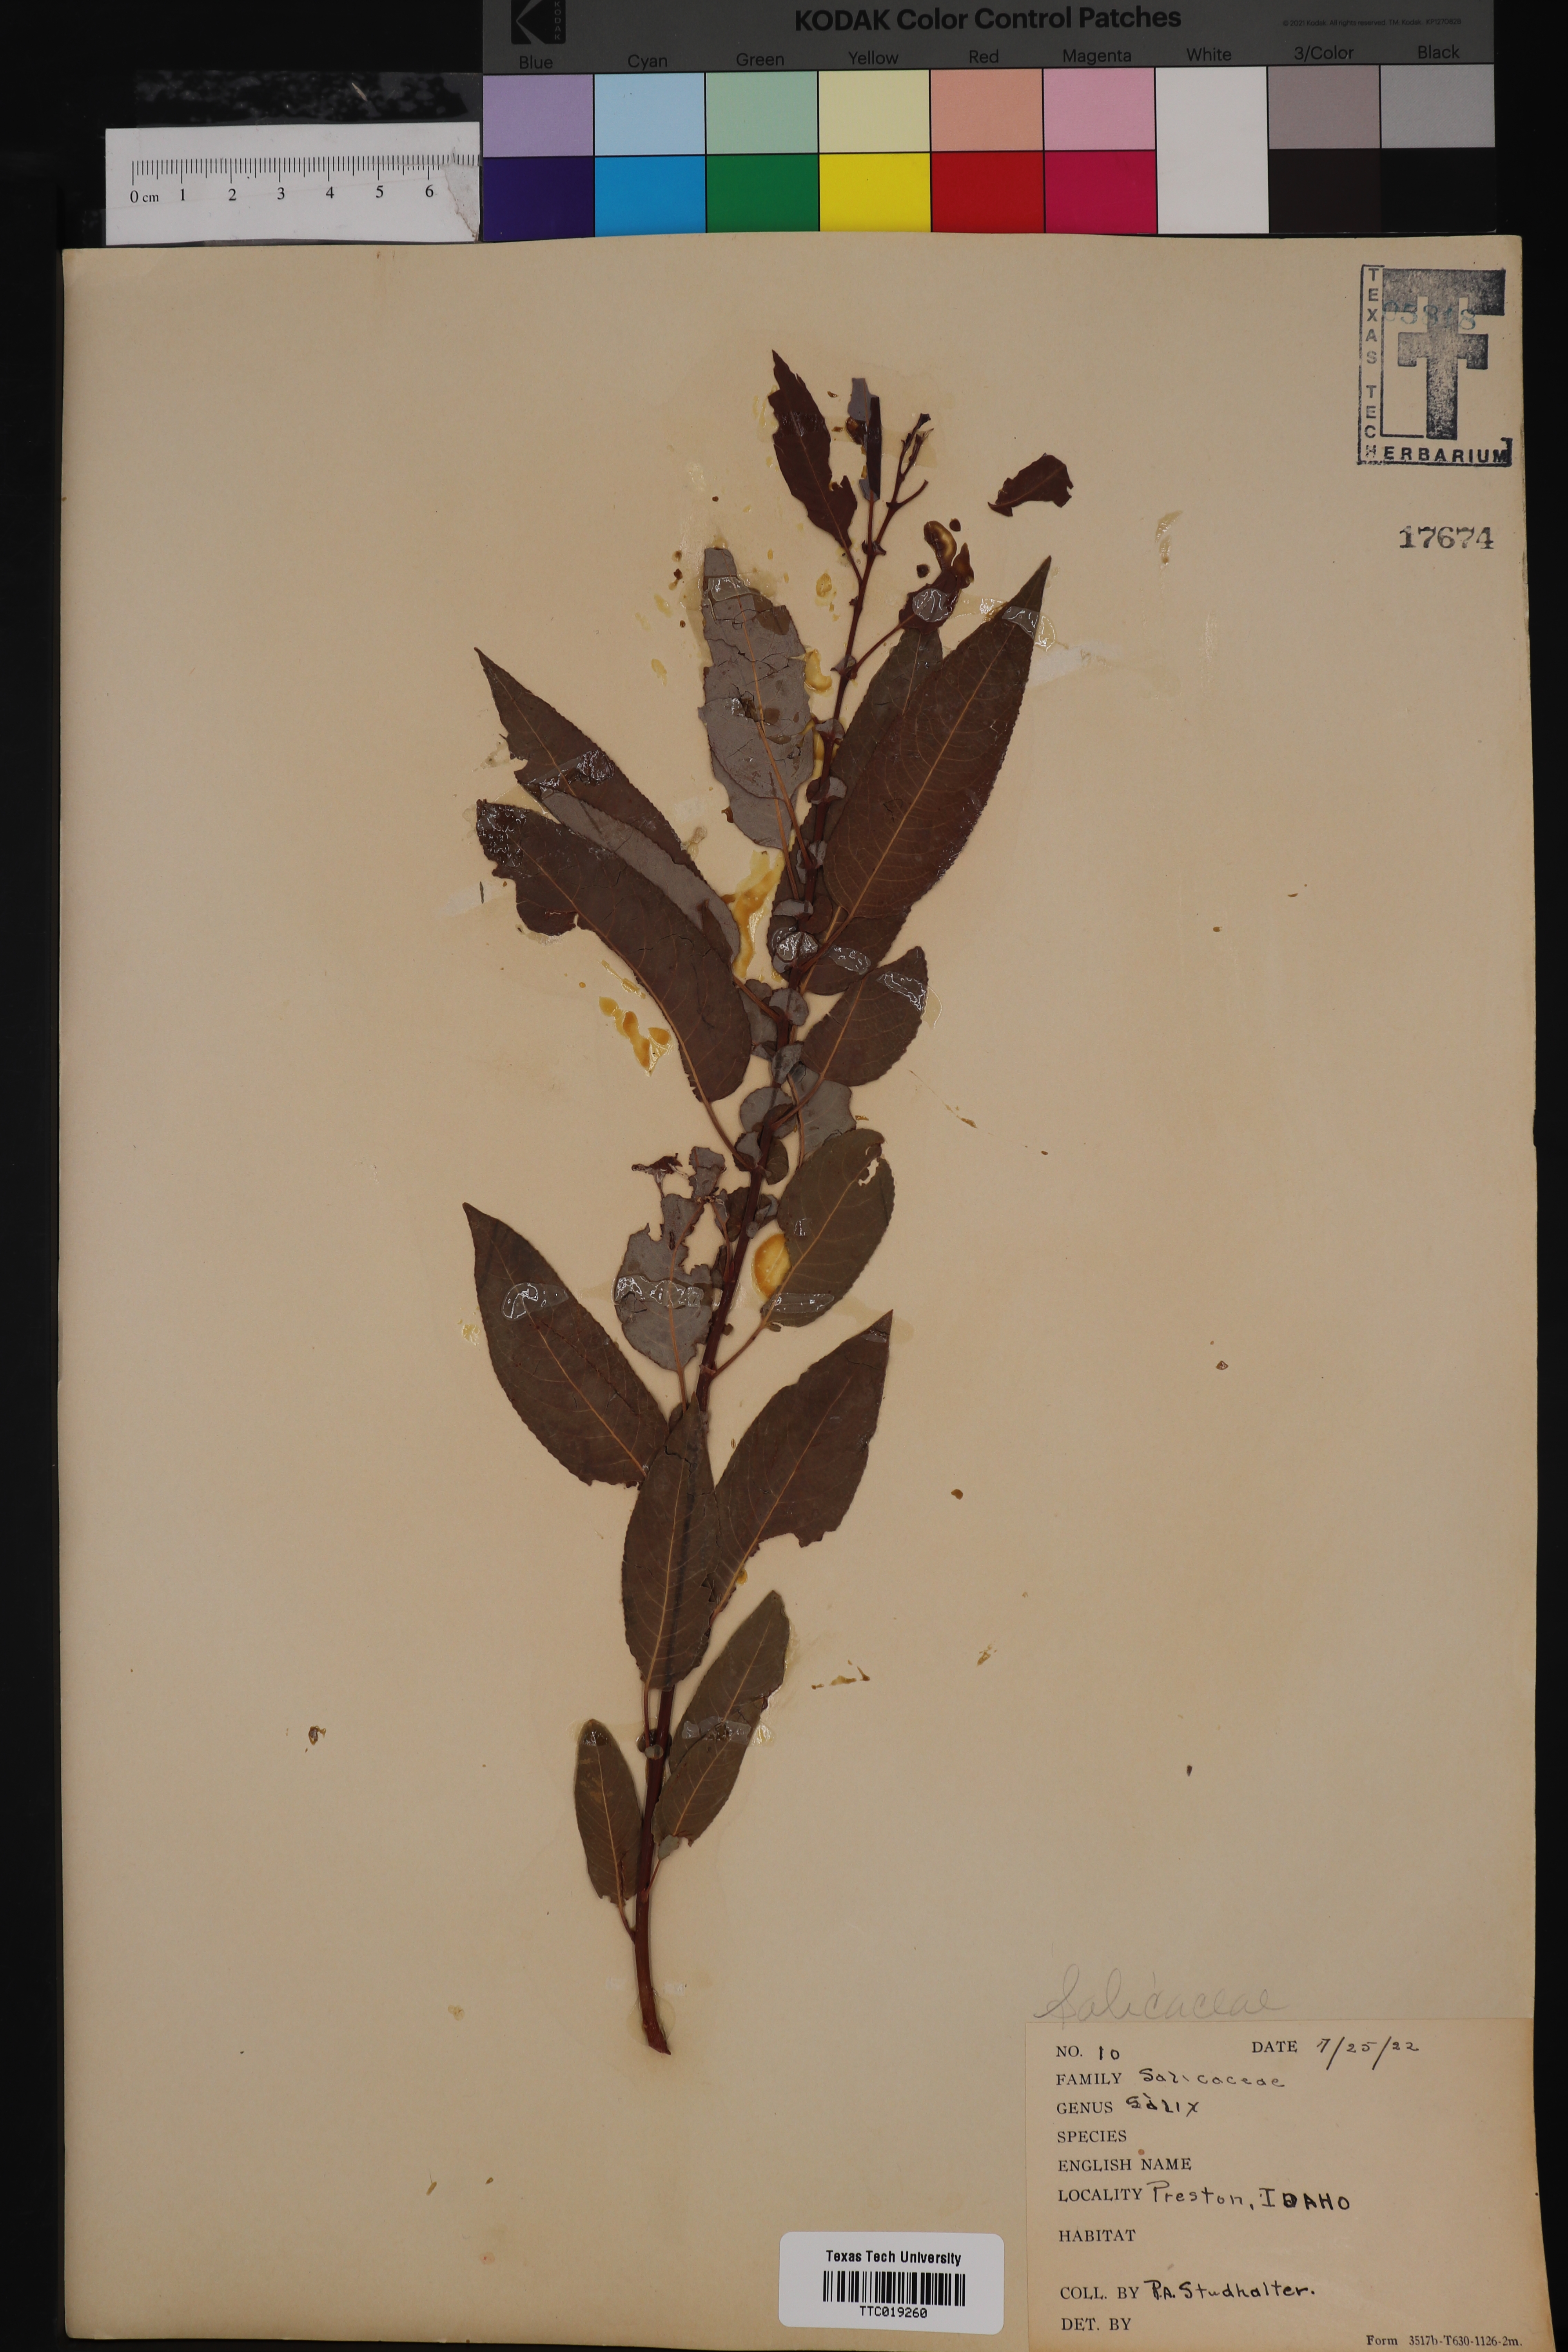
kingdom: Plantae
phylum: Tracheophyta
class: Magnoliopsida
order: Malpighiales
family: Salicaceae
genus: Salix
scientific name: Salix
